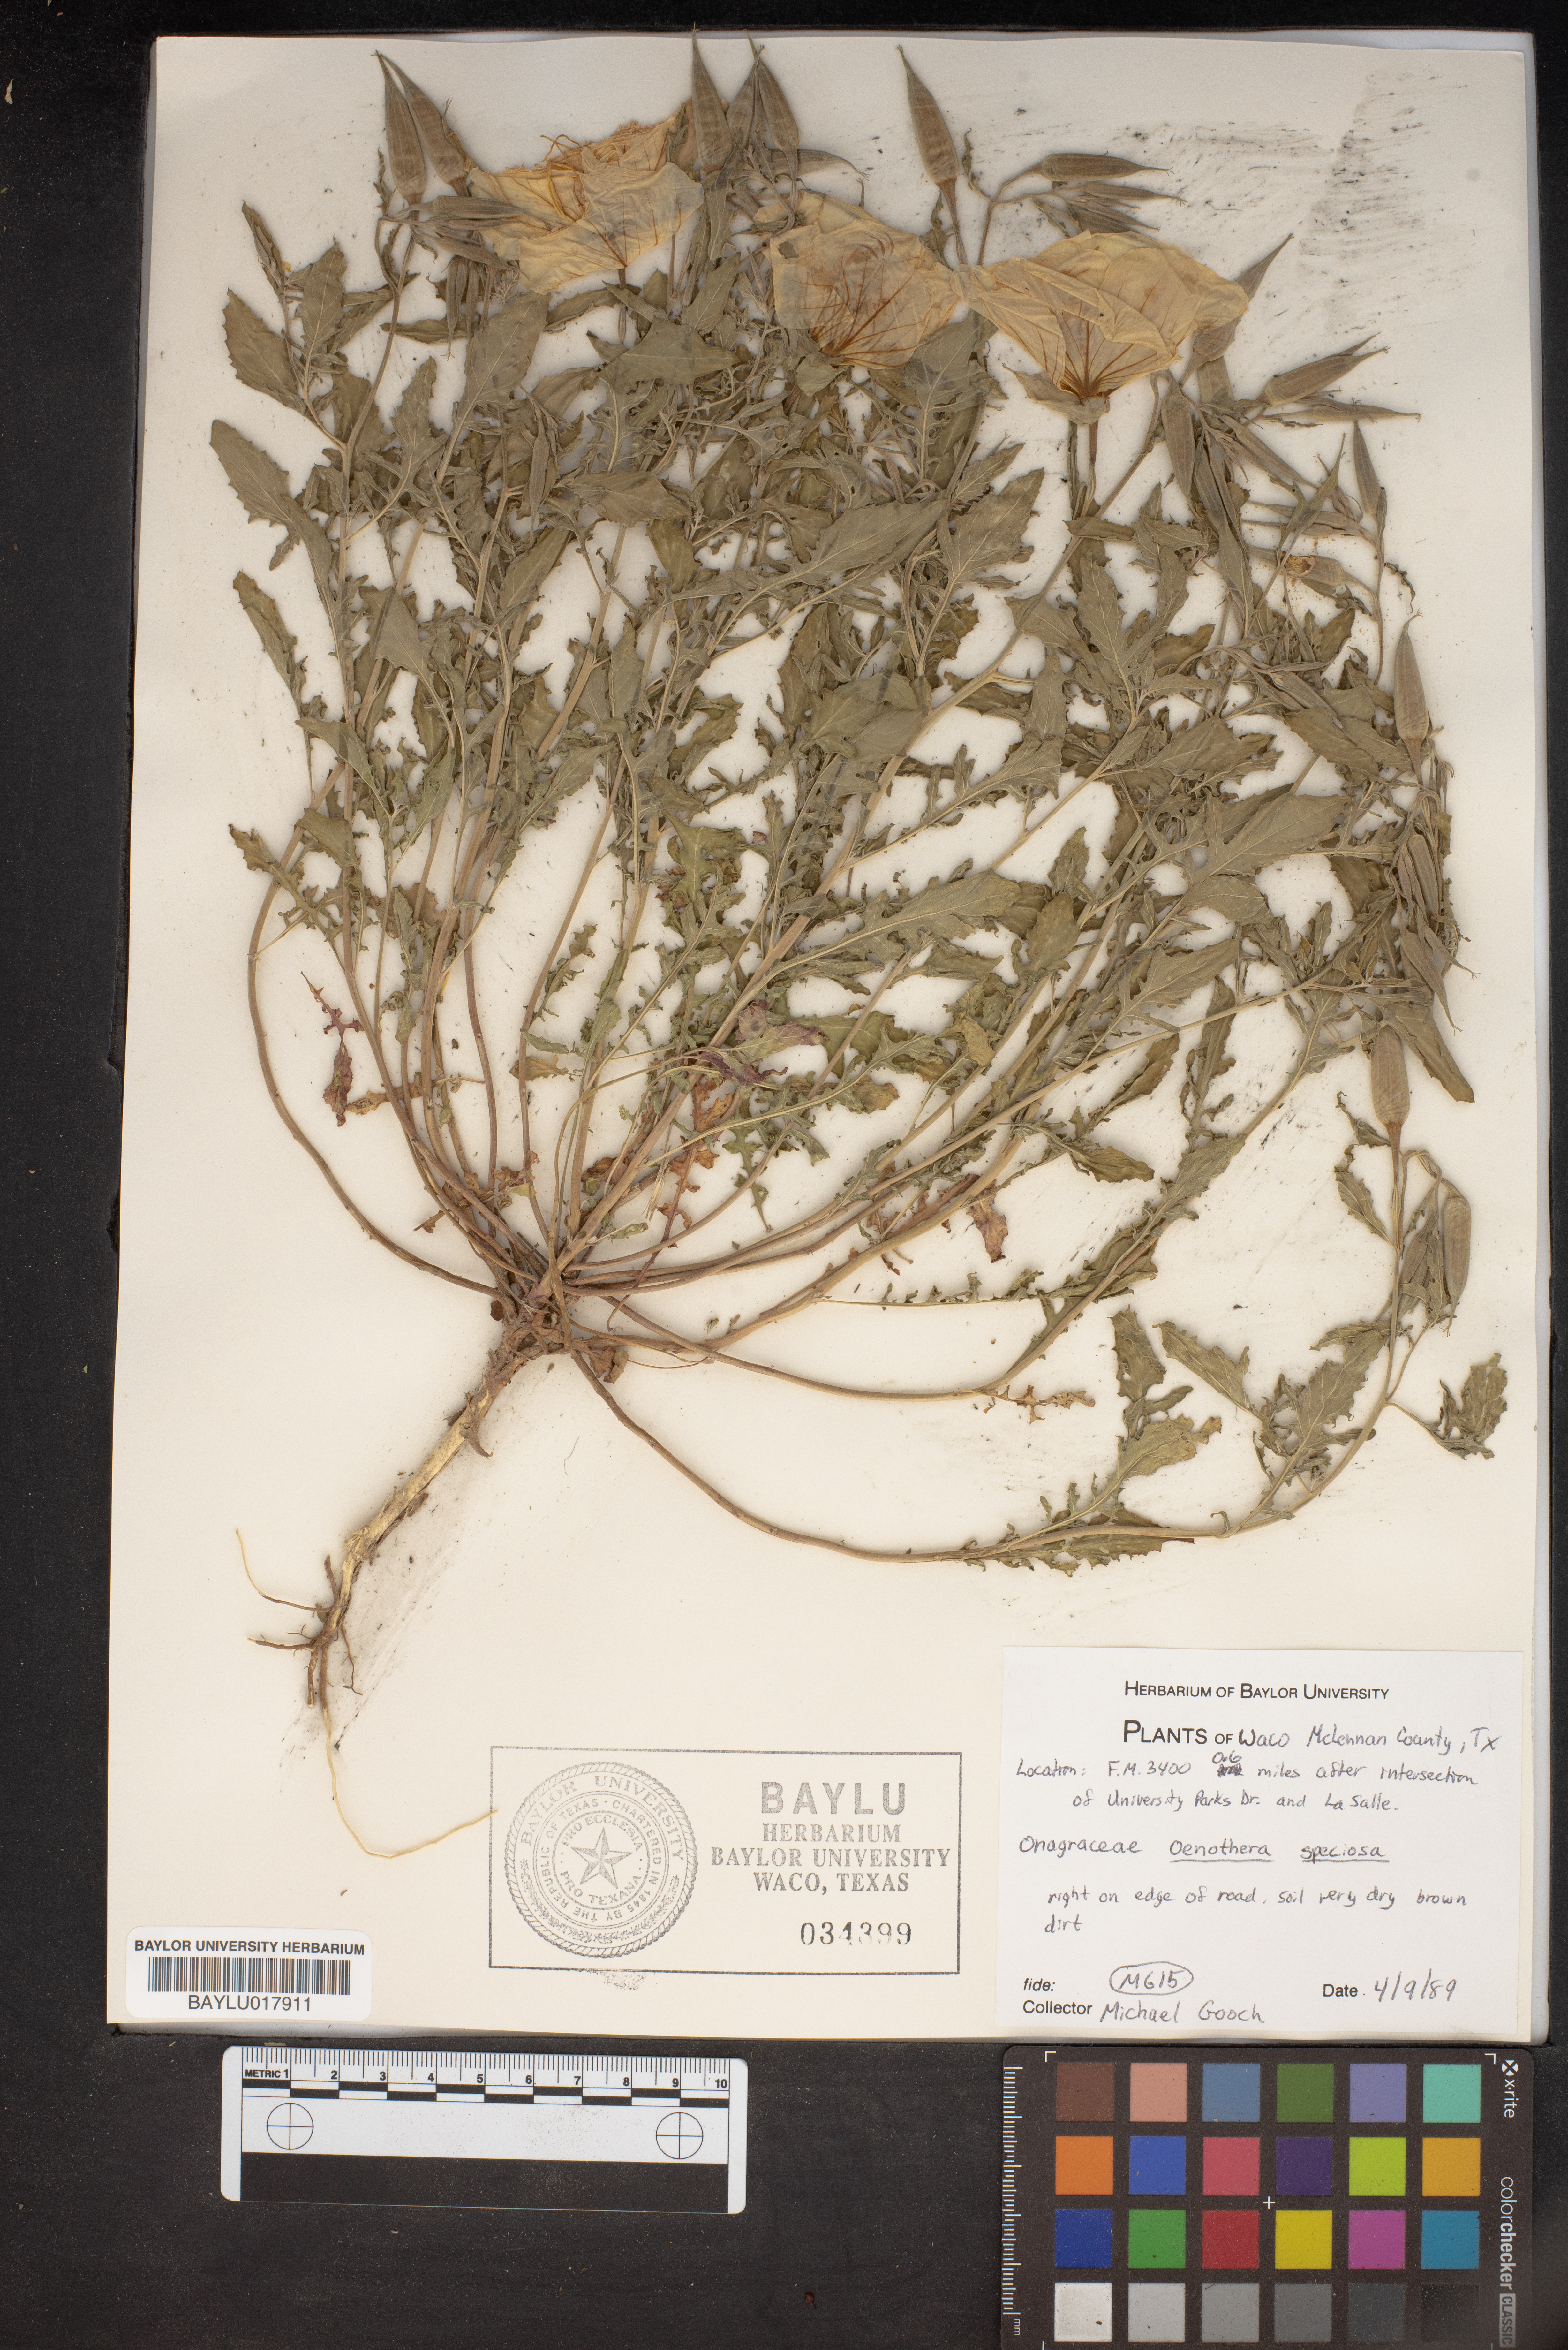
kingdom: Plantae
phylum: Tracheophyta
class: Magnoliopsida
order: Myrtales
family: Onagraceae
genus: Oenothera
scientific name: Oenothera speciosa
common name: White evening-primrose
